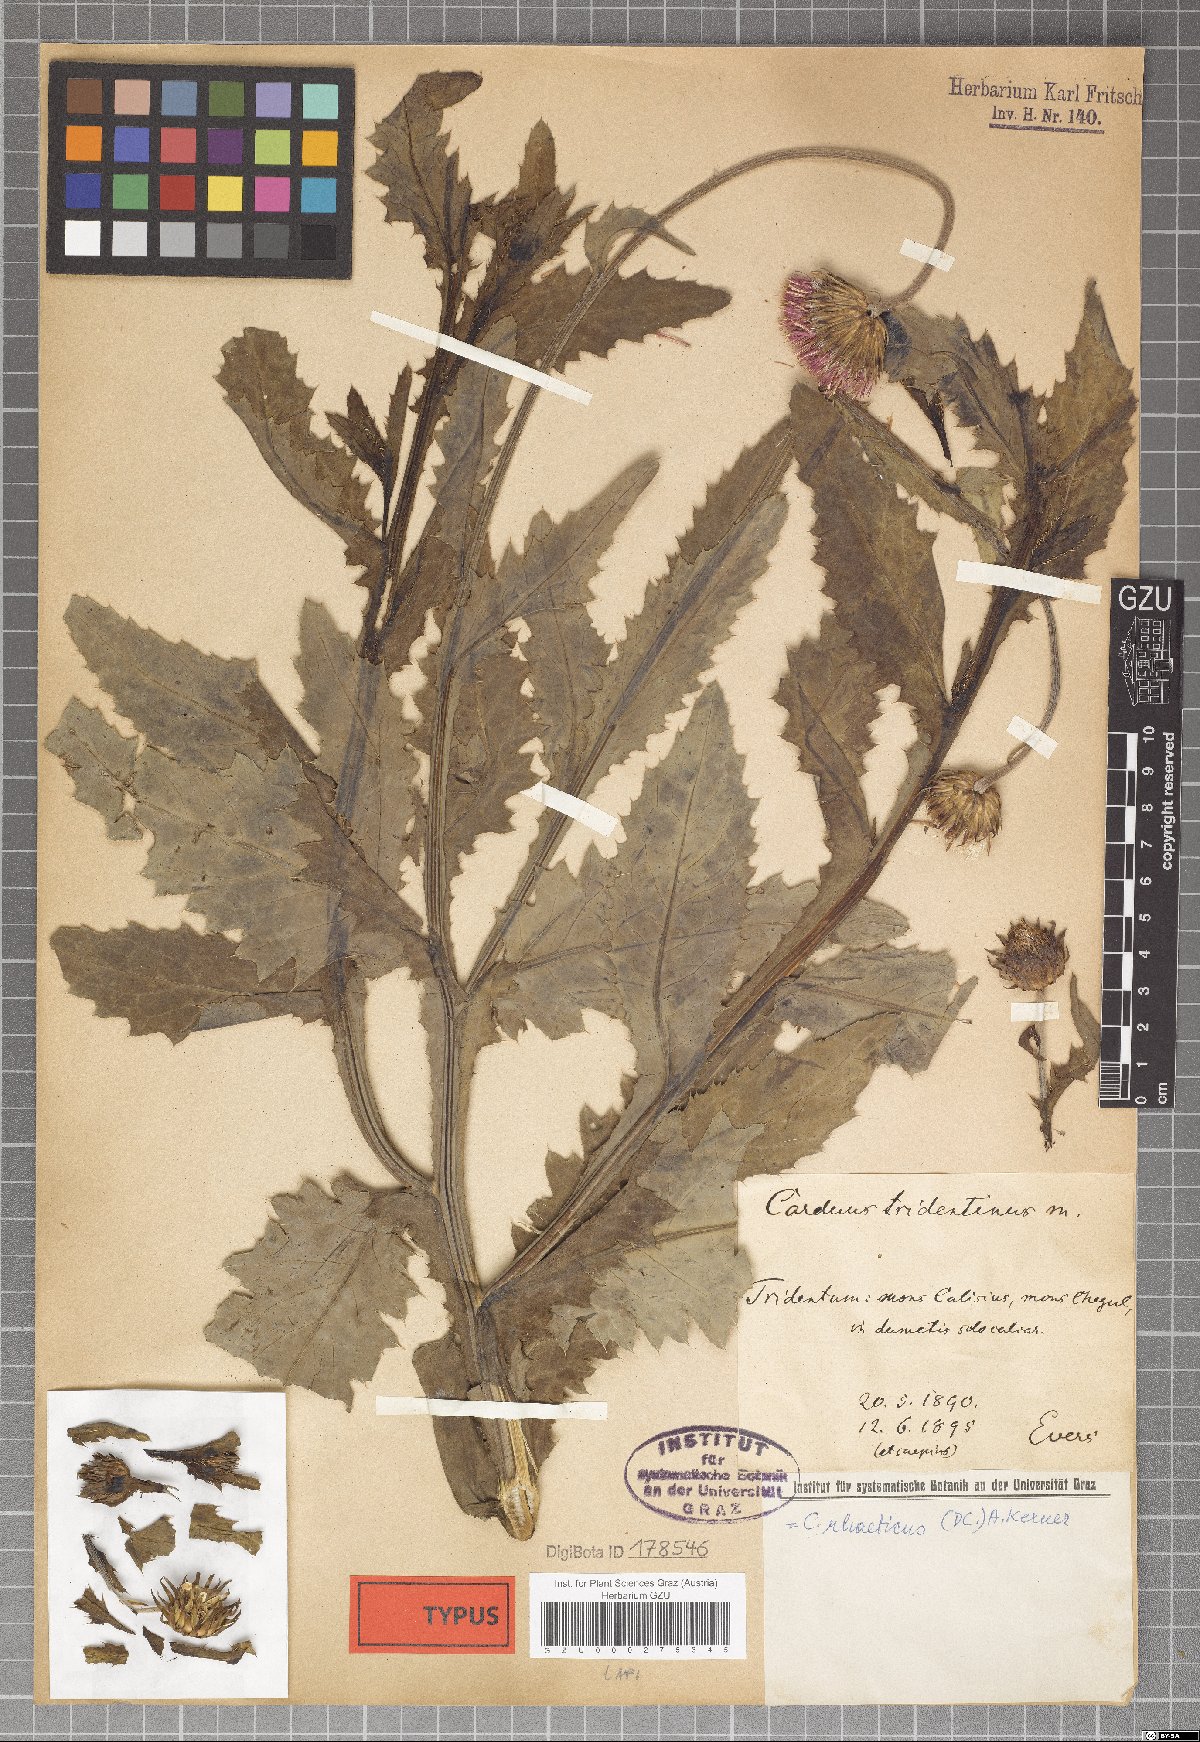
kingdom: Plantae
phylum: Tracheophyta
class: Magnoliopsida
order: Asterales
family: Asteraceae
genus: Carduus
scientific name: Carduus defloratus
